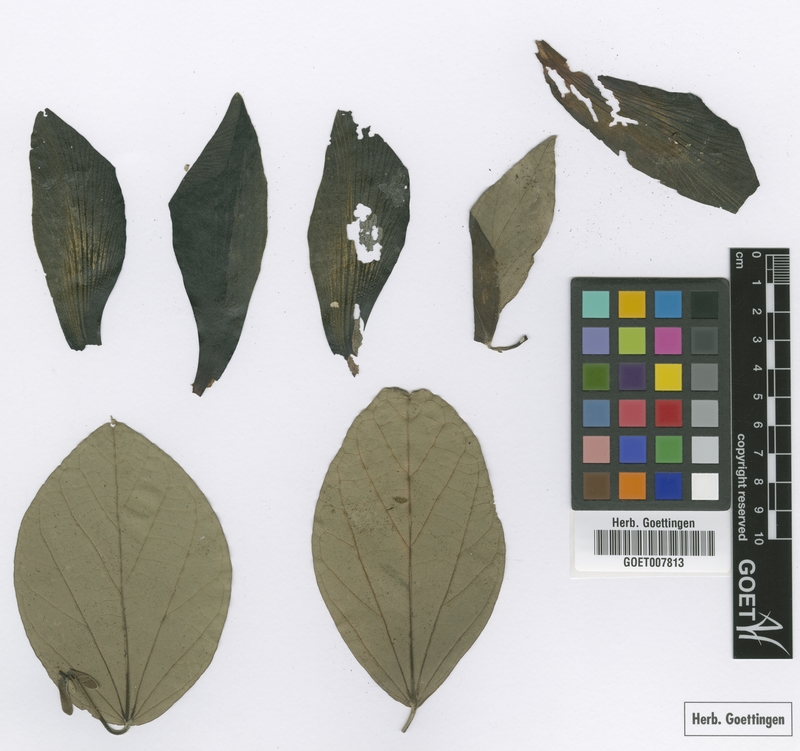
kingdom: Plantae
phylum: Tracheophyta
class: Magnoliopsida
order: Malvales
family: Malvaceae
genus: Talipariti
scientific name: Talipariti elatum
